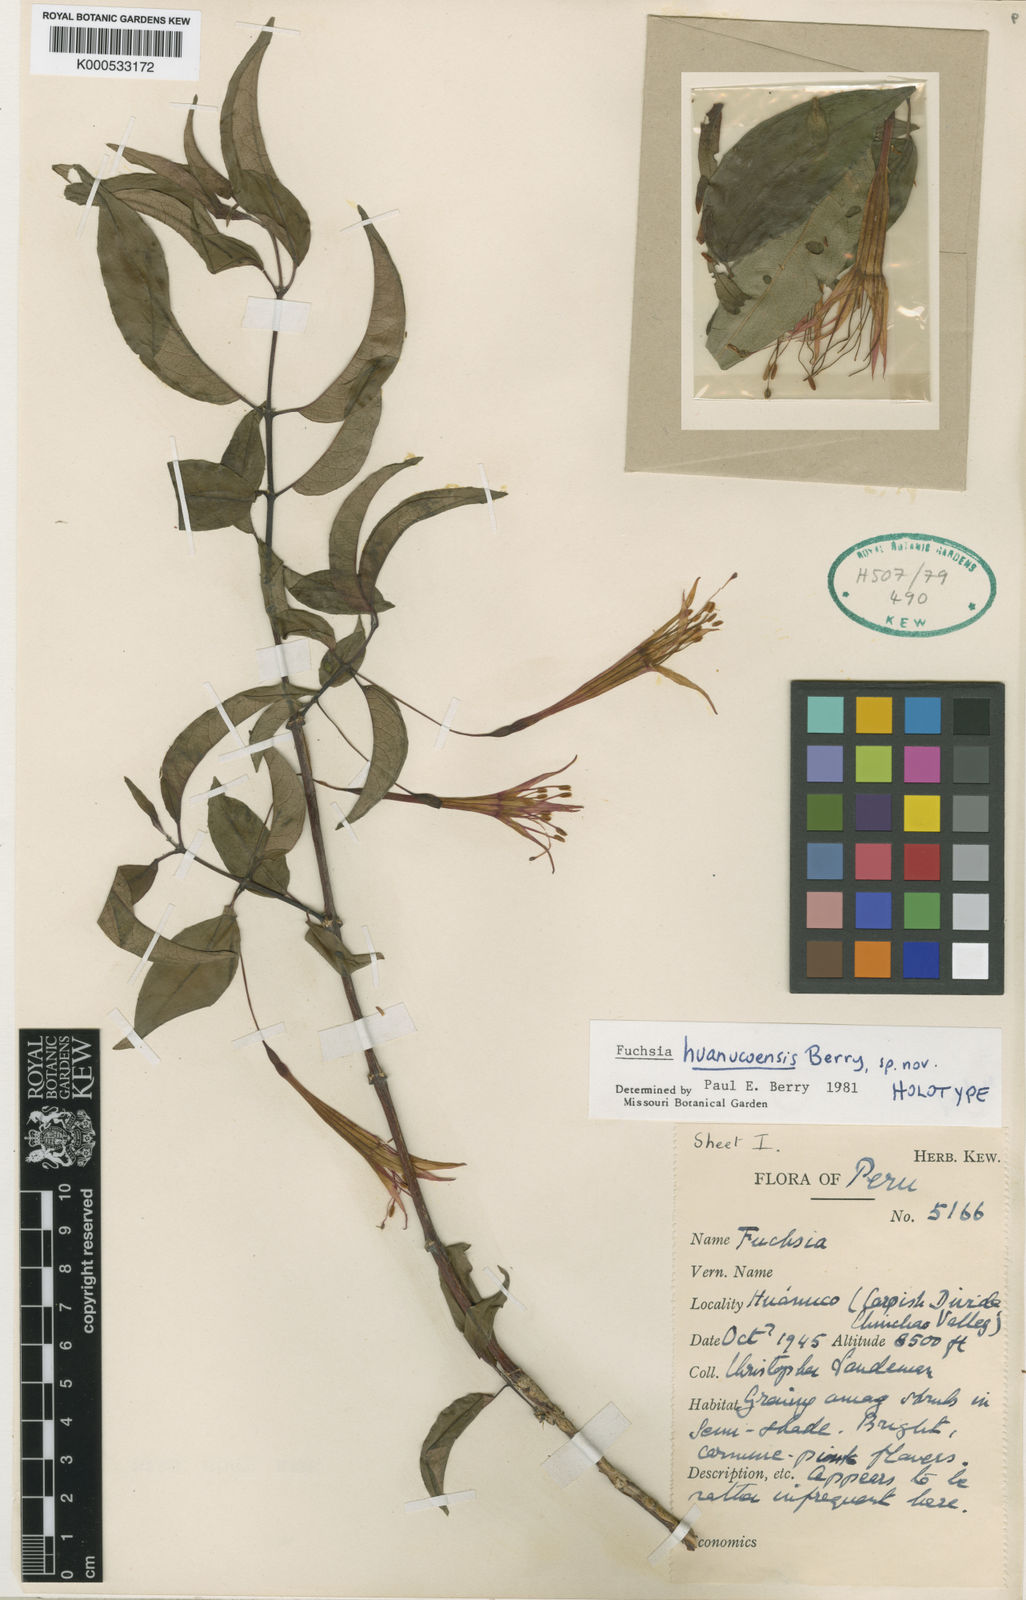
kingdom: Plantae
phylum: Tracheophyta
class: Magnoliopsida
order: Myrtales
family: Onagraceae
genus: Fuchsia
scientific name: Fuchsia huanucoensis
